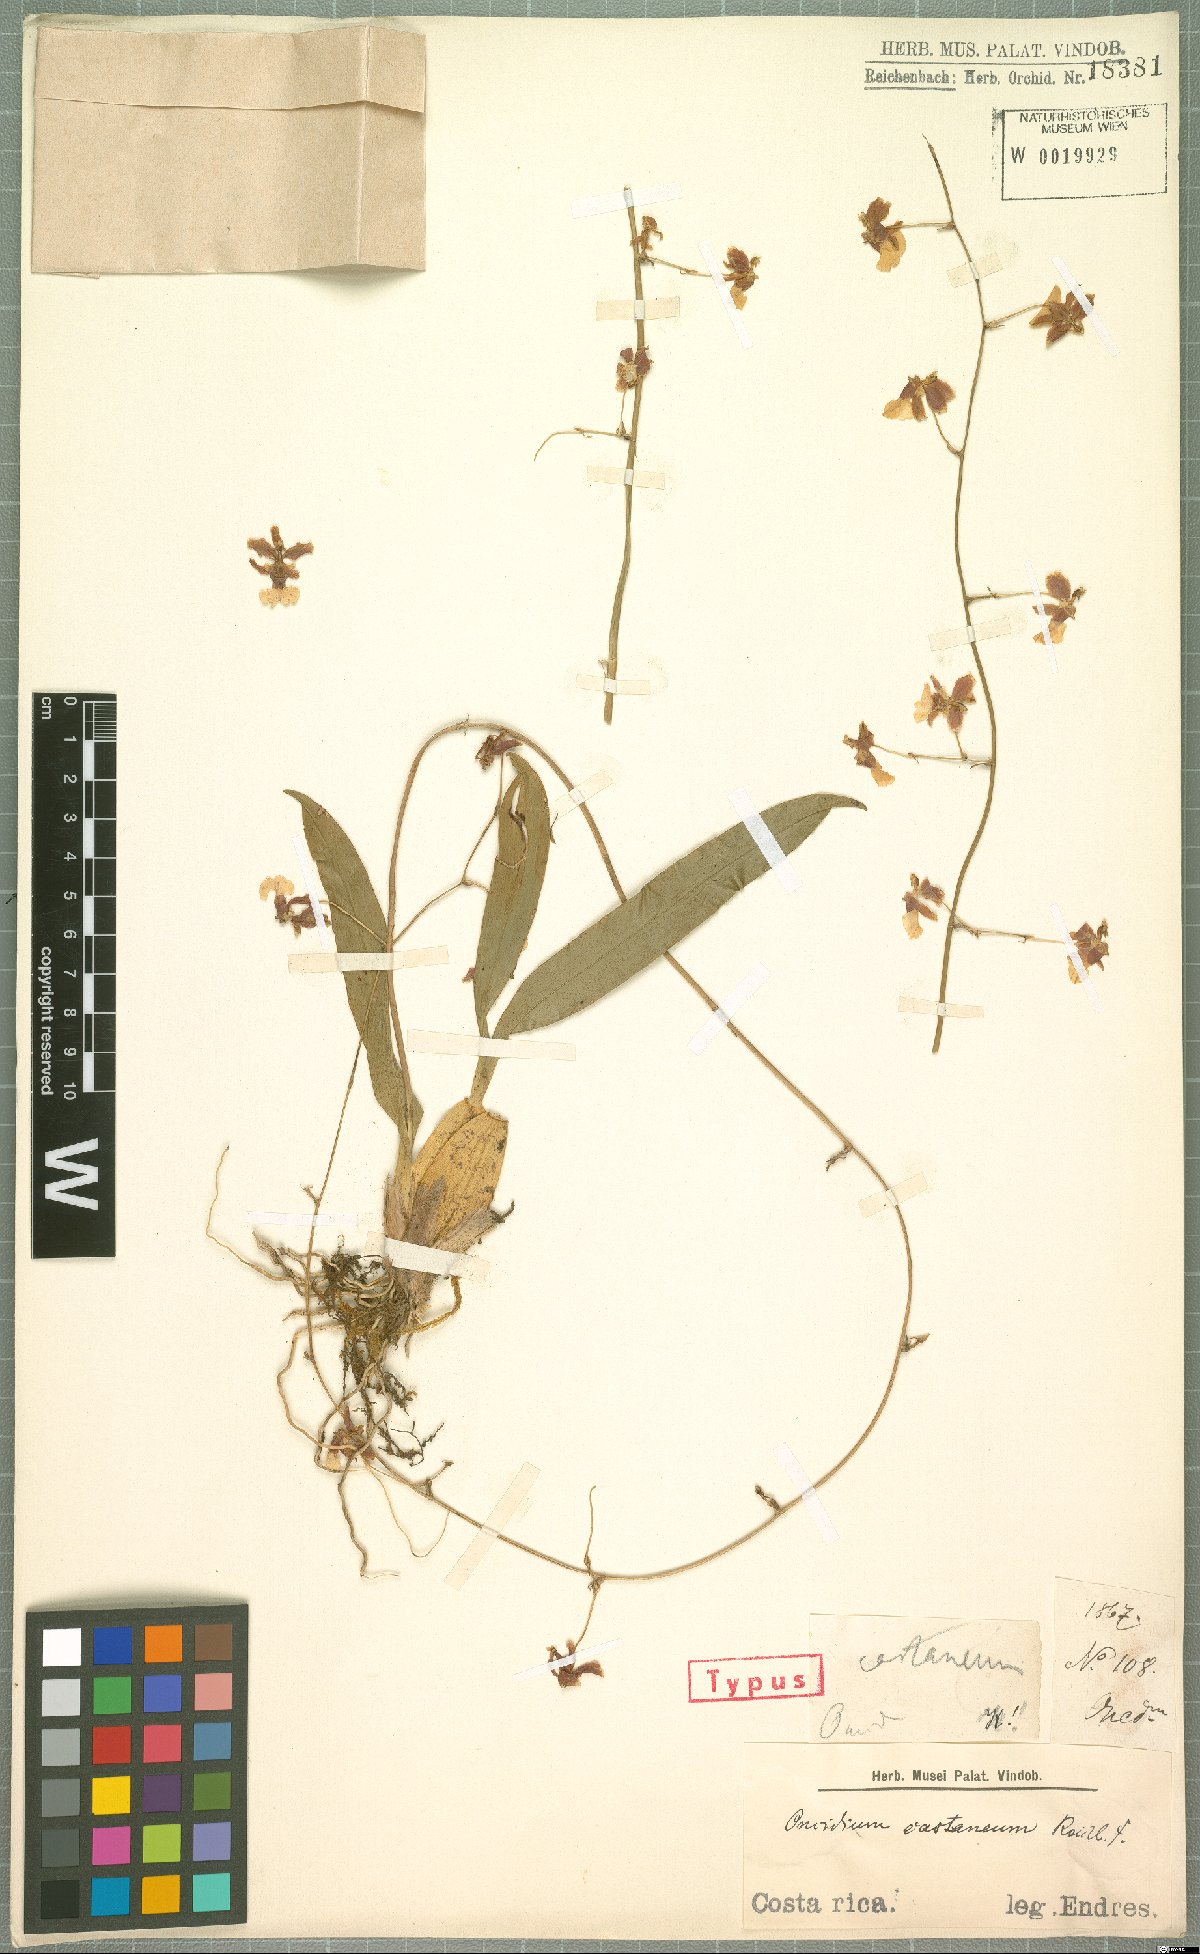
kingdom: Plantae
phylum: Tracheophyta
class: Liliopsida
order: Asparagales
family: Orchidaceae
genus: Oncidium
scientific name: Oncidium dichromaticum
